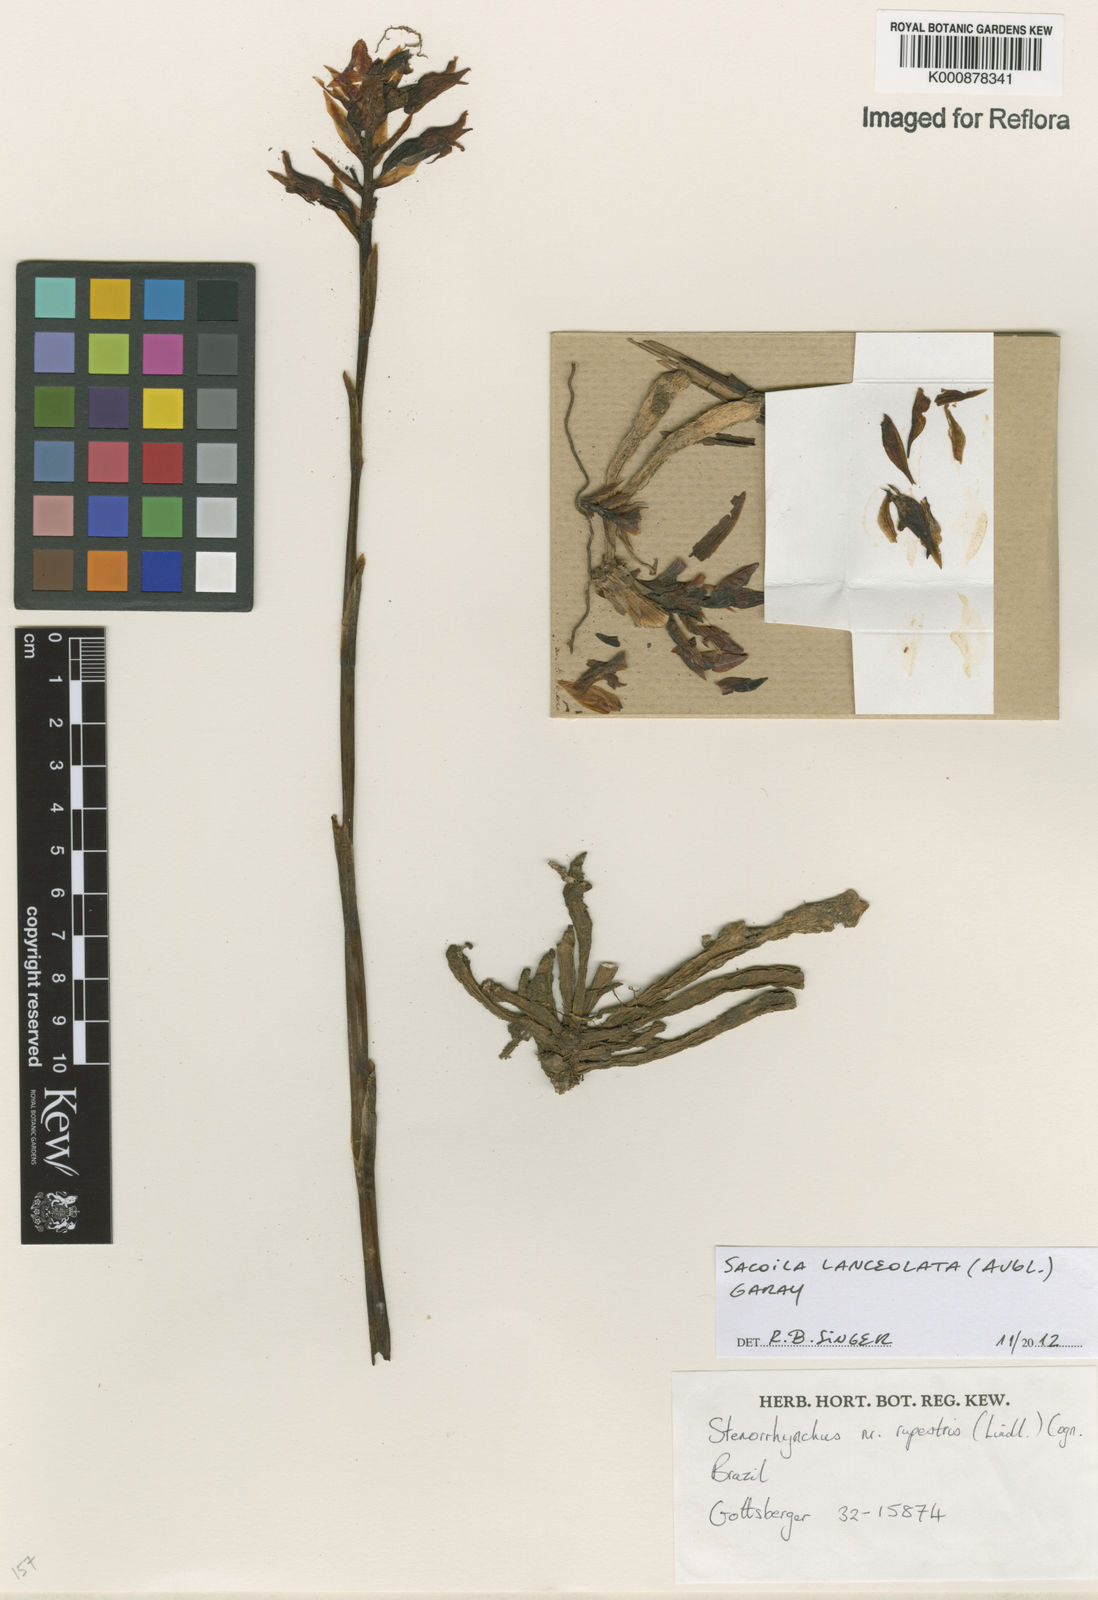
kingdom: Plantae
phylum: Tracheophyta
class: Liliopsida
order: Asparagales
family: Orchidaceae
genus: Sacoila
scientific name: Sacoila lanceolata
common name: Leafless beaked ladiestresses
